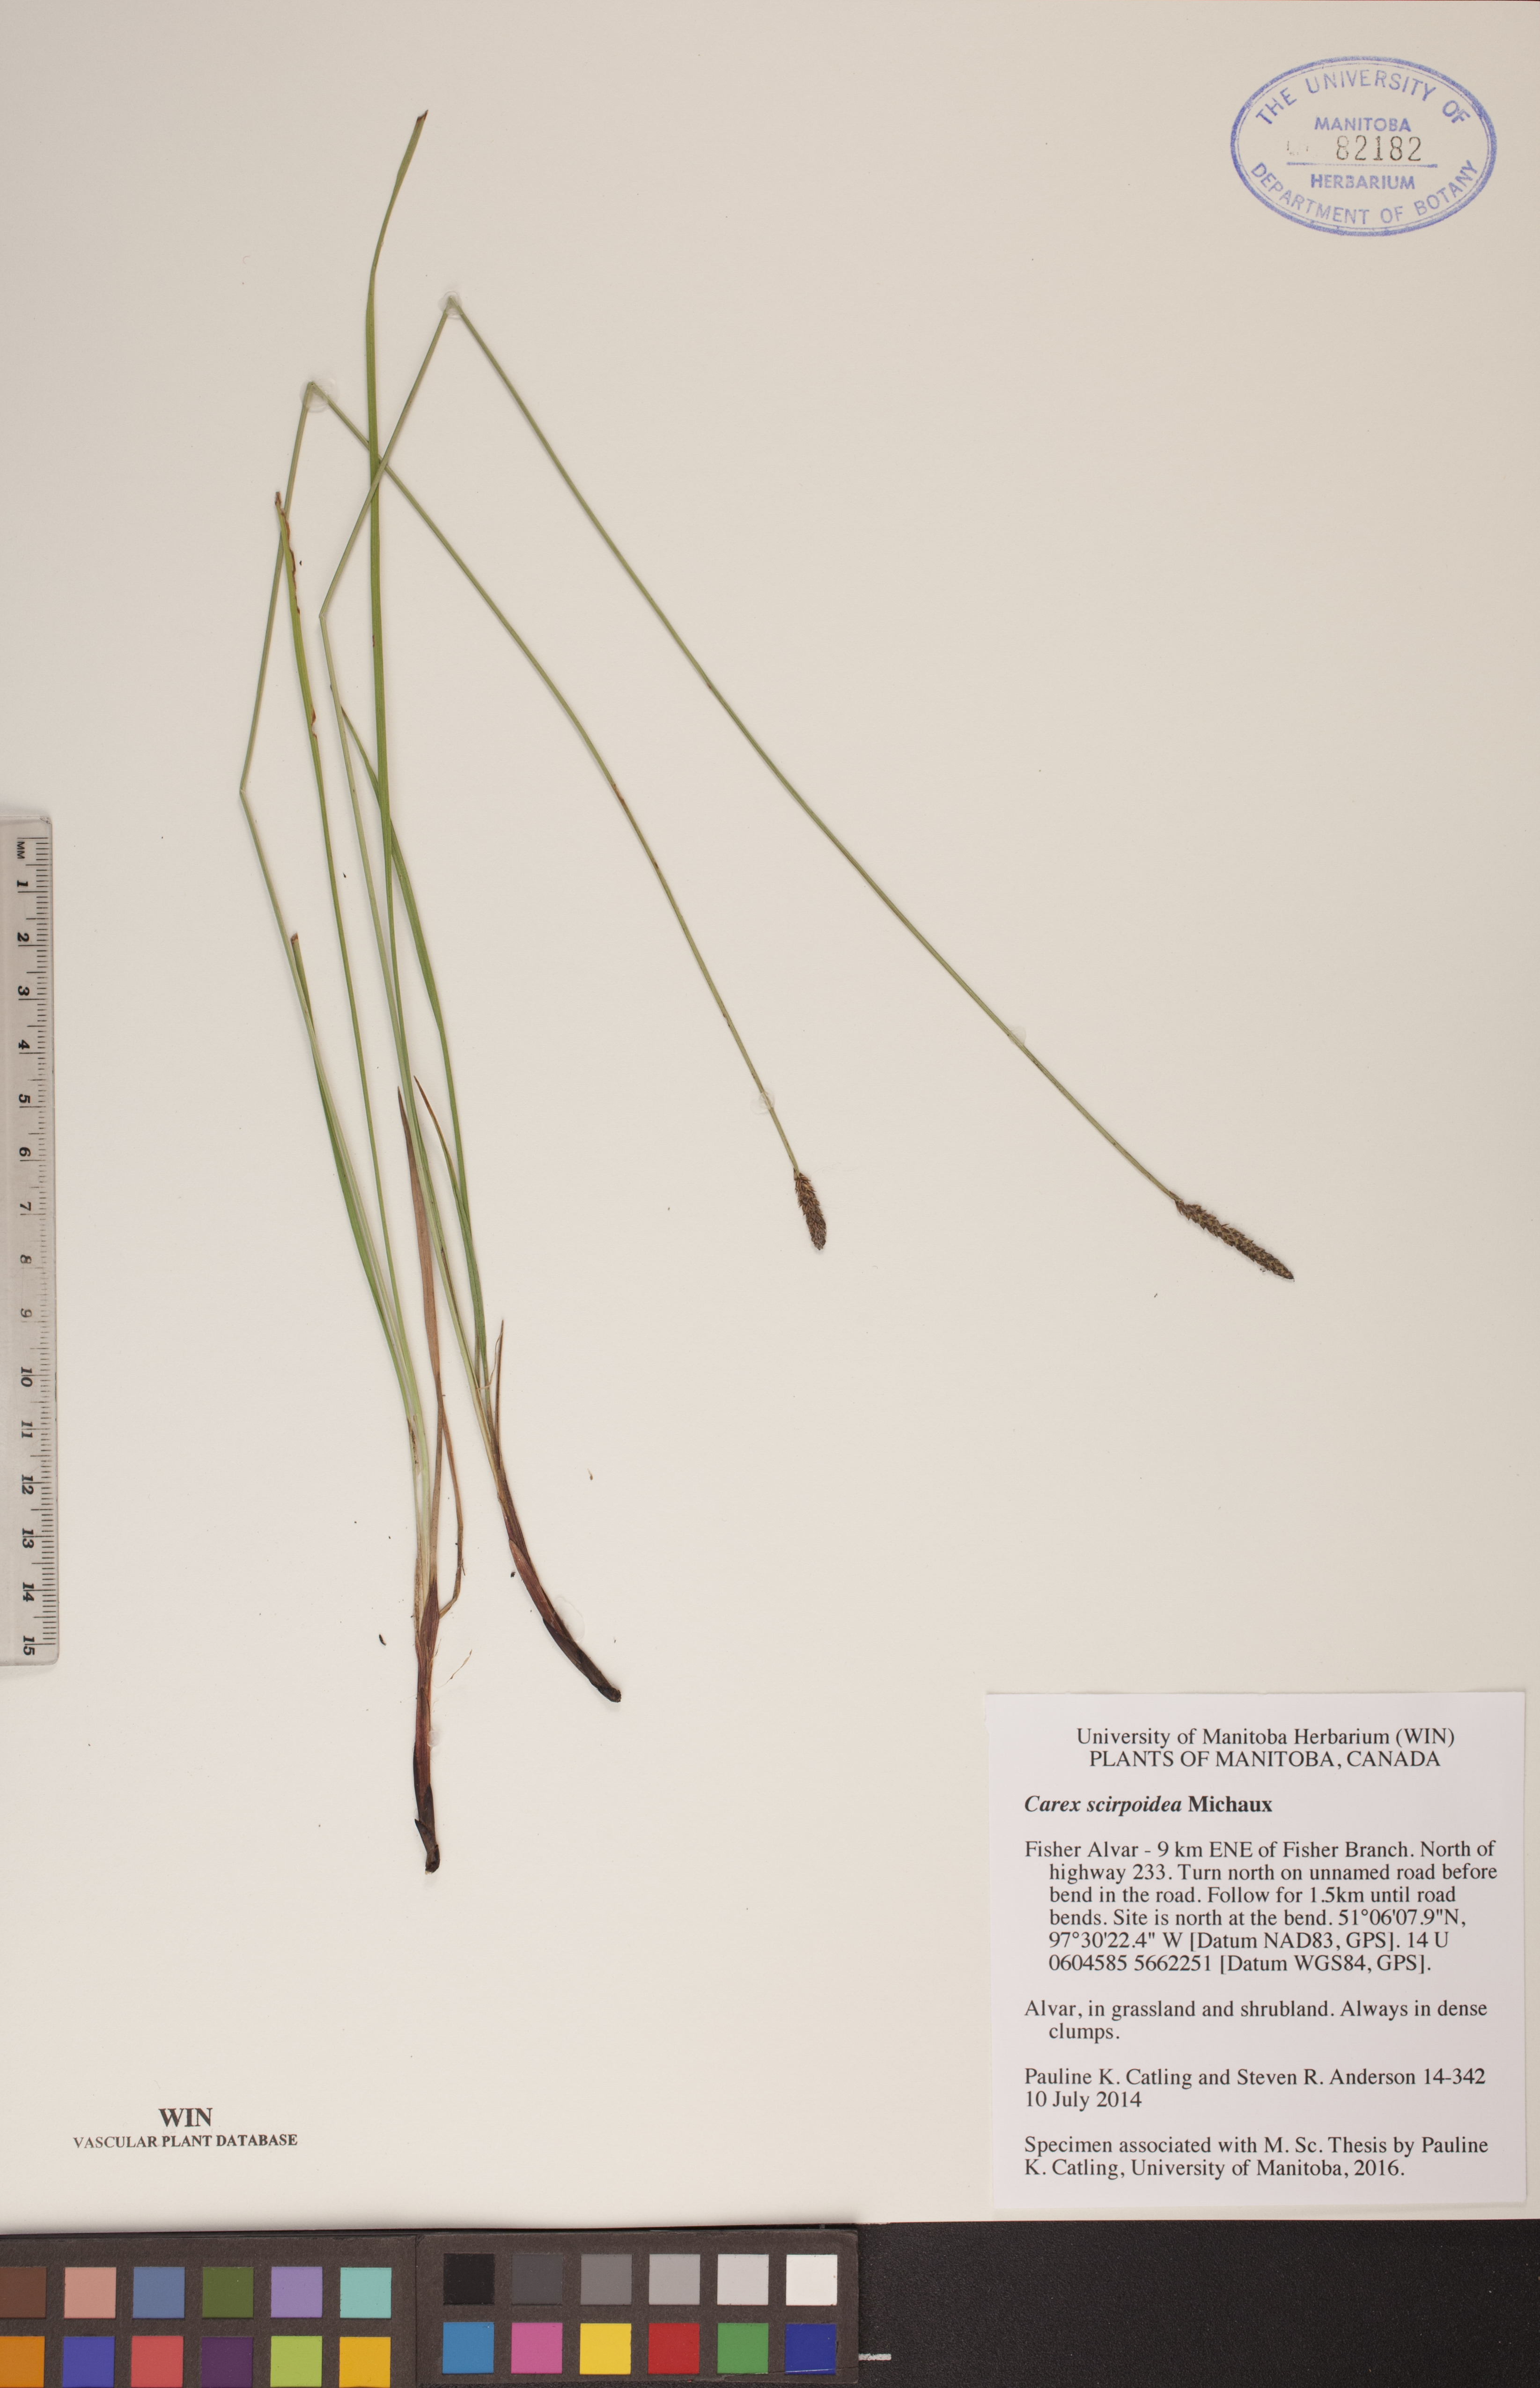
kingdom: Plantae
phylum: Tracheophyta
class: Liliopsida
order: Poales
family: Cyperaceae
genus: Carex
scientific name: Carex scirpoidea
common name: Canada single-spike sedge
